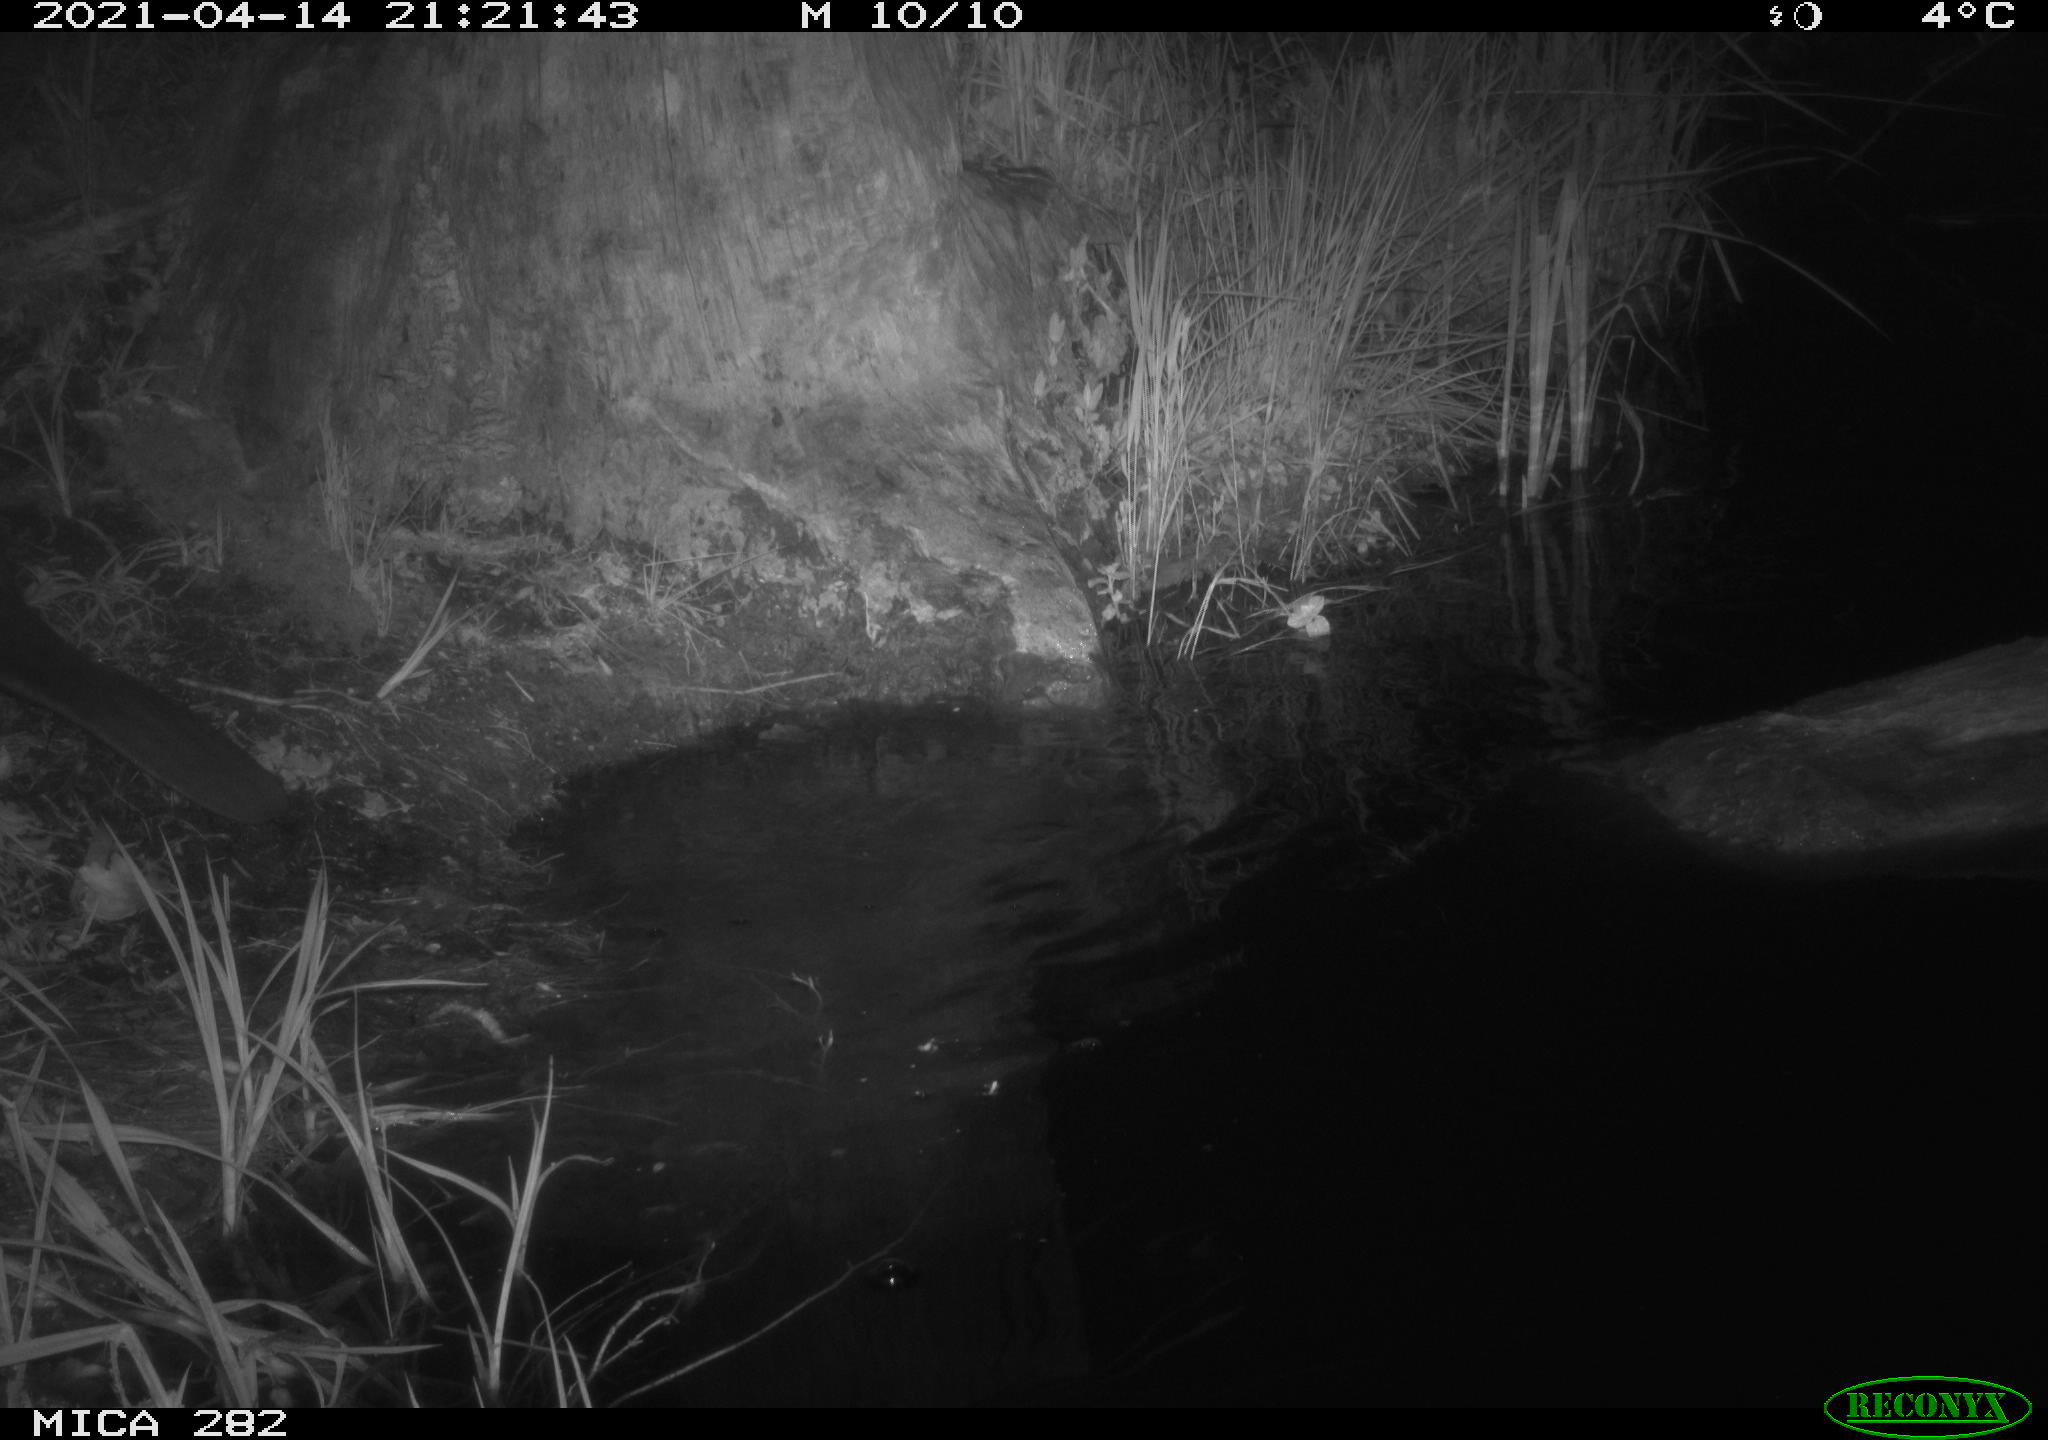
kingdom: Animalia
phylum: Chordata
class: Mammalia
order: Rodentia
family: Castoridae
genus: Castor
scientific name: Castor fiber
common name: Eurasian beaver
